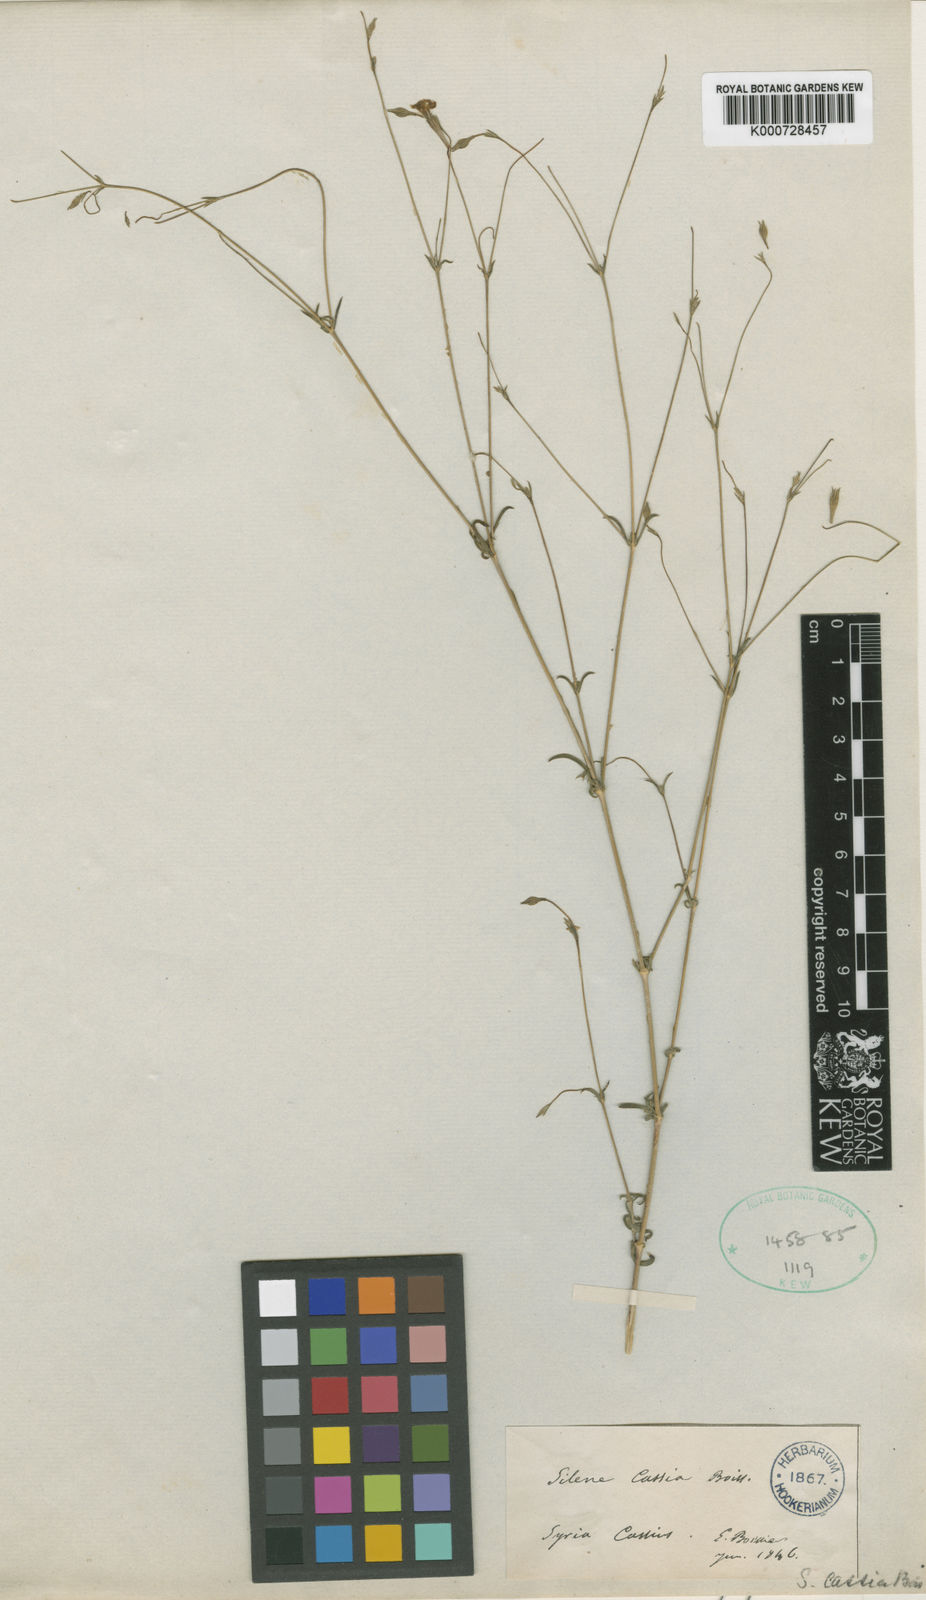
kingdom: Plantae
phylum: Tracheophyta
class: Magnoliopsida
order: Caryophyllales
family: Caryophyllaceae
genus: Silene
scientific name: Silene microsperma
